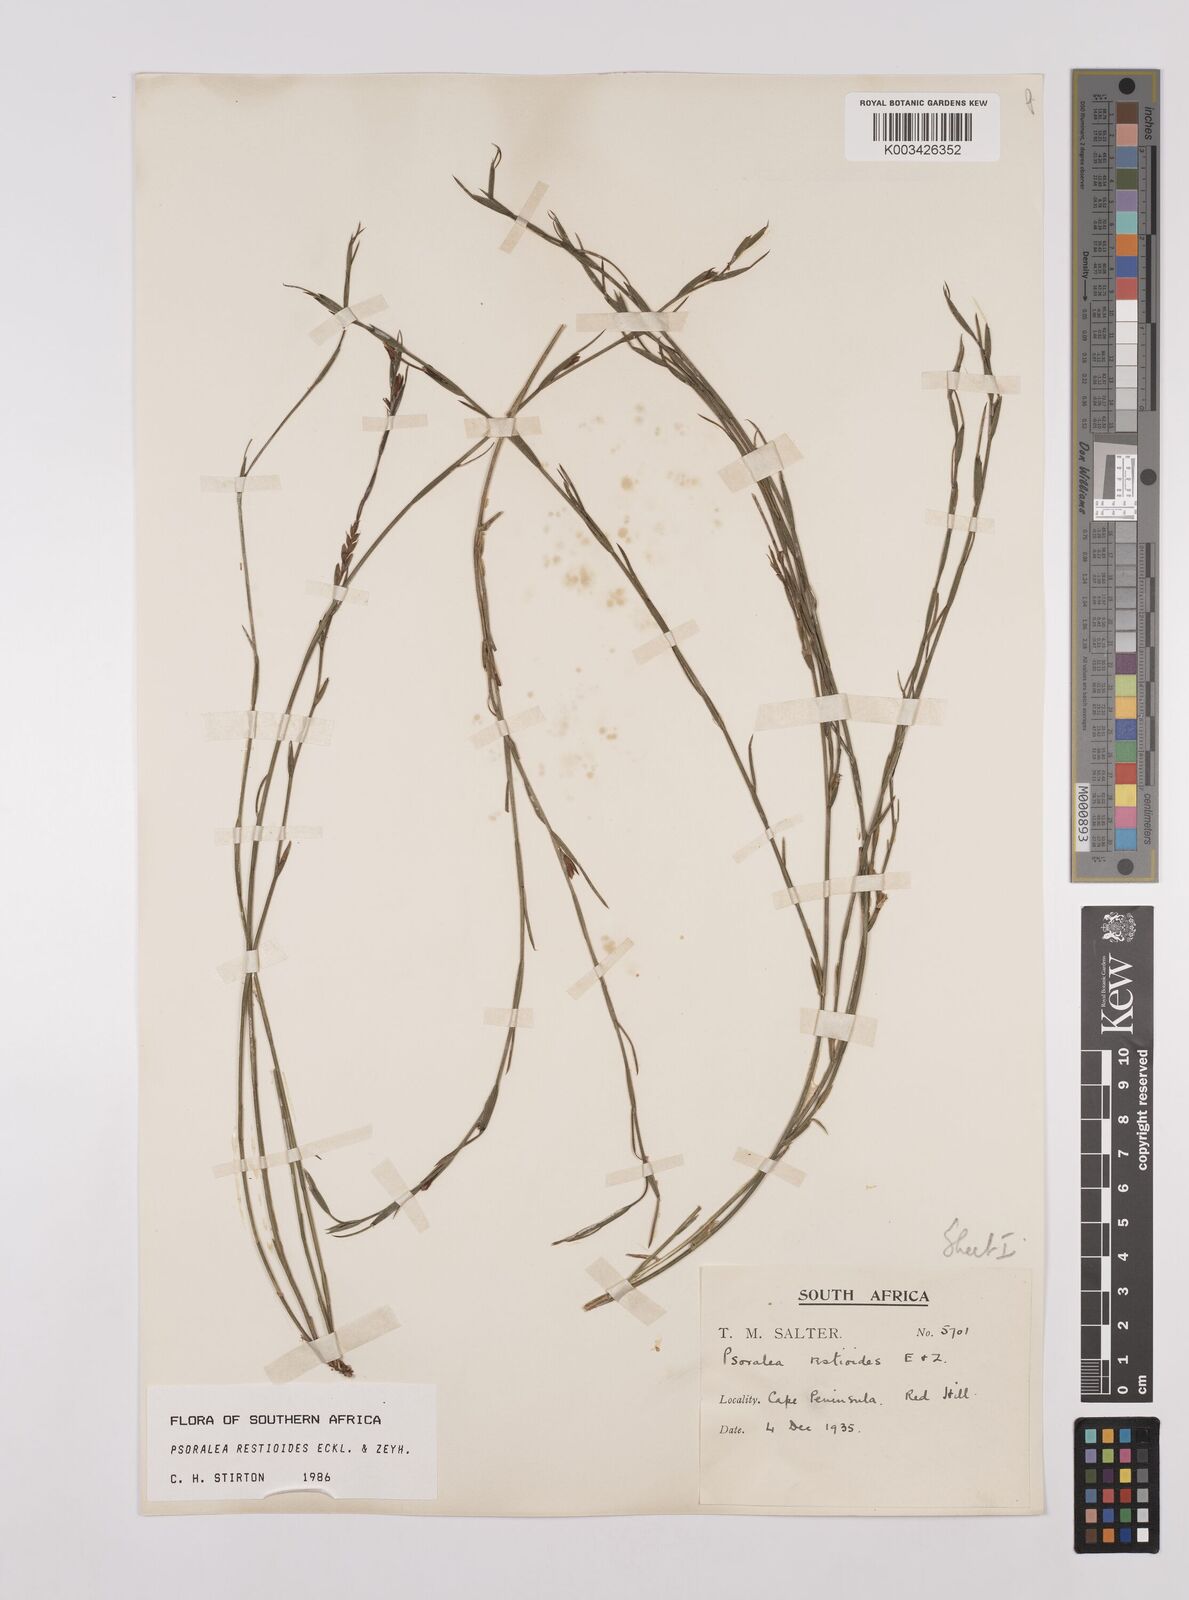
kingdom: Plantae
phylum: Tracheophyta
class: Magnoliopsida
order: Fabales
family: Fabaceae
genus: Psoralea
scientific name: Psoralea restioides
